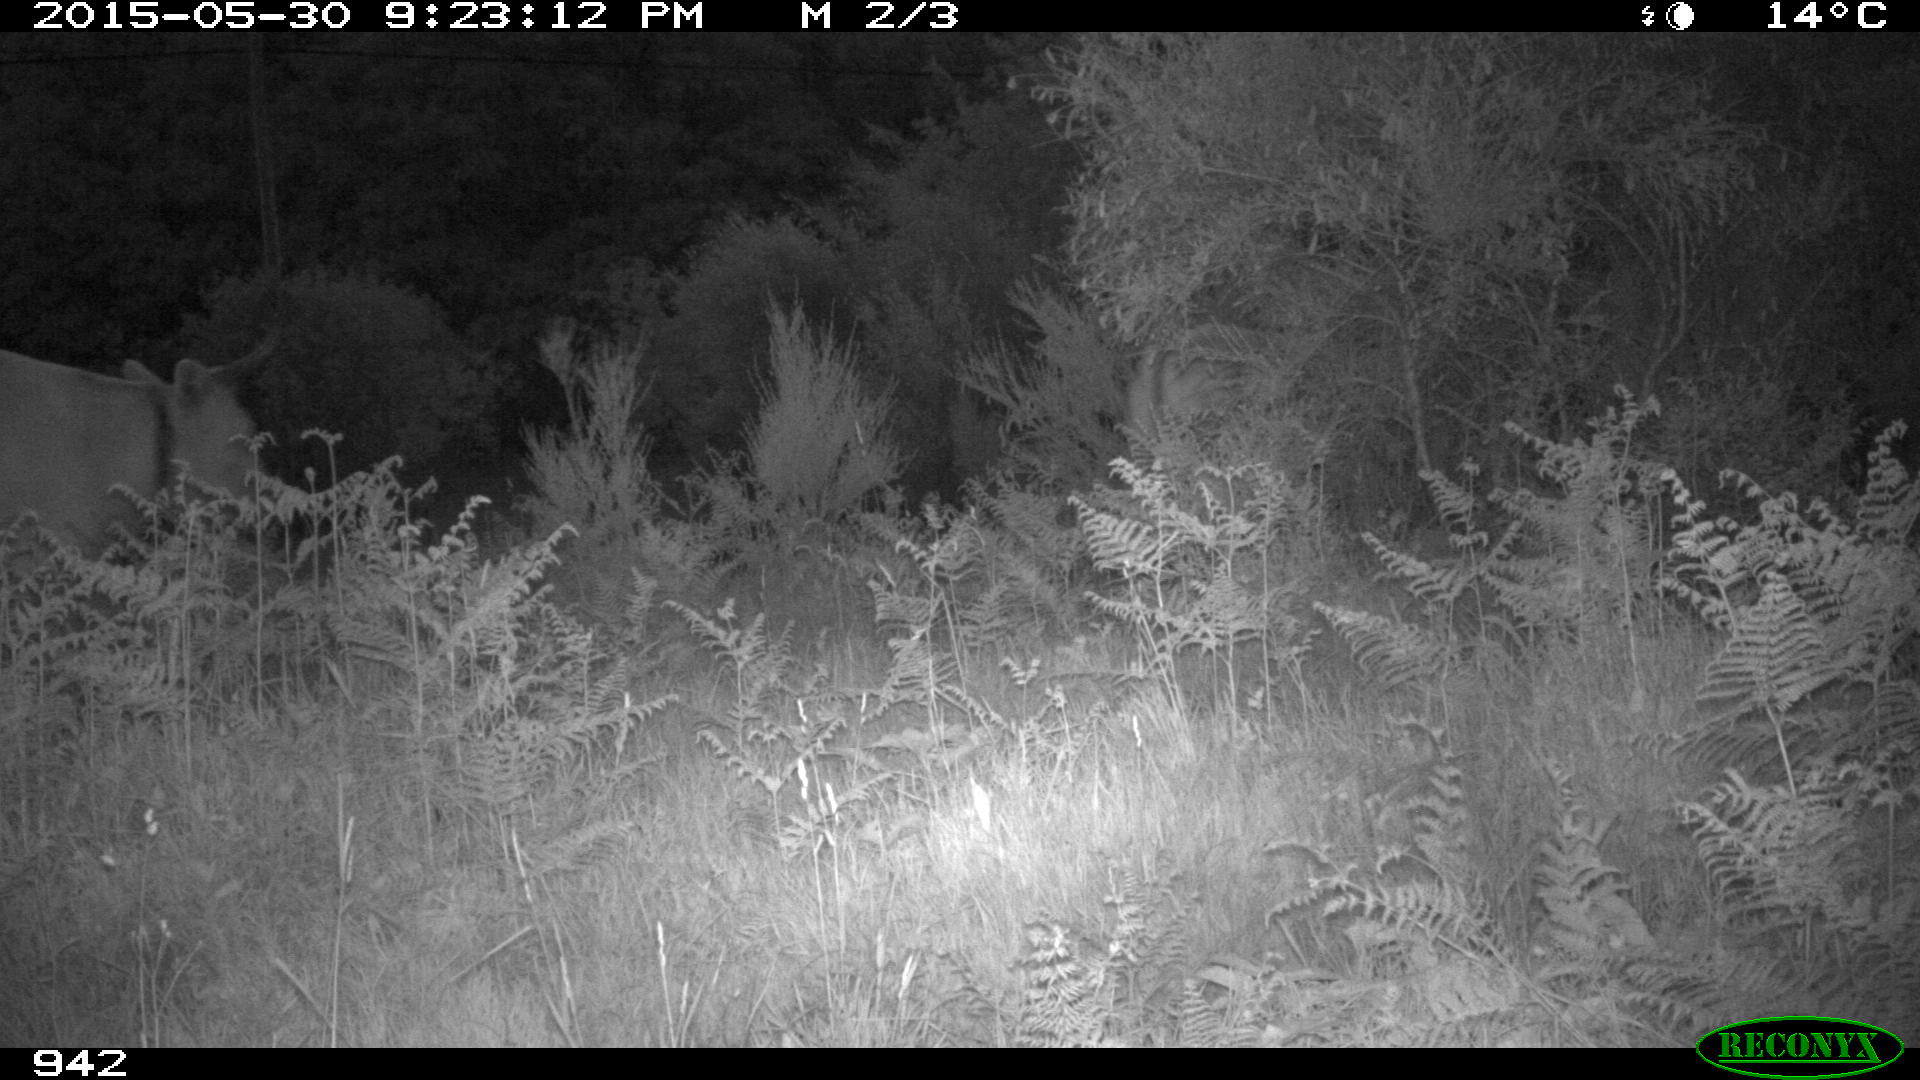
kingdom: Animalia
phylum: Chordata
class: Mammalia
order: Artiodactyla
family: Bovidae
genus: Bos
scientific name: Bos taurus
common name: Domesticated cattle
